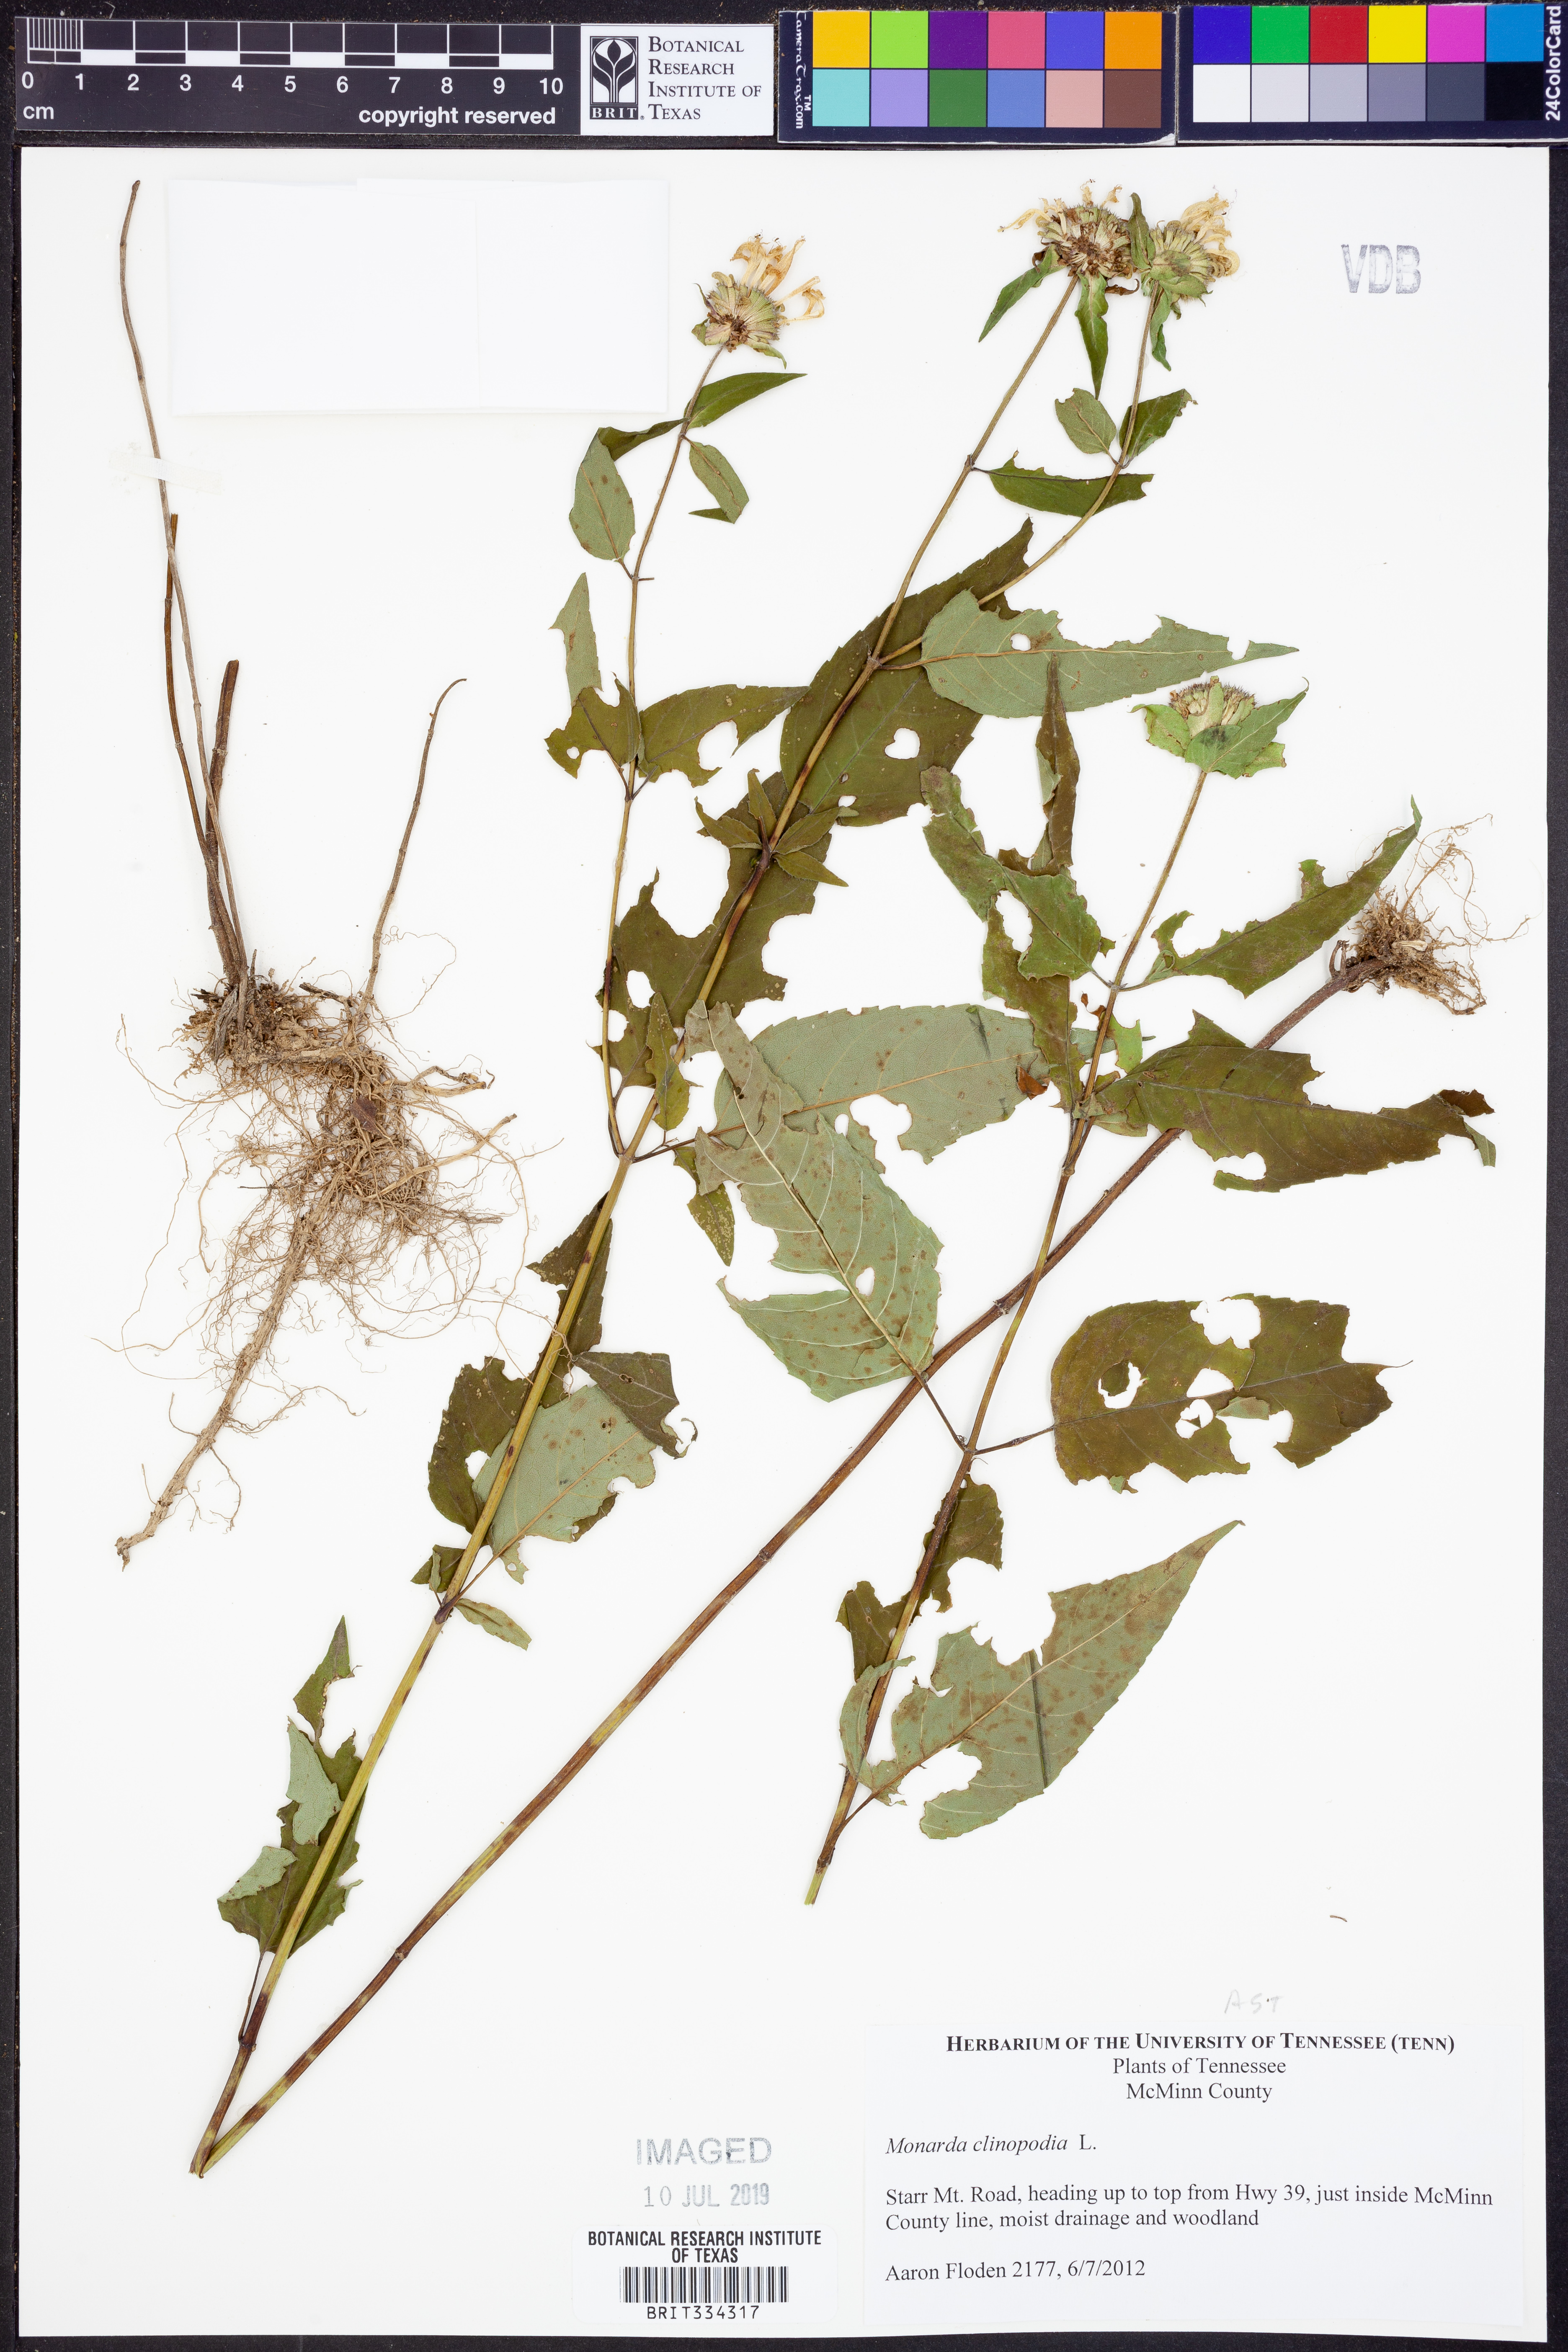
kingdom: Plantae
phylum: Tracheophyta
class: Magnoliopsida
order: Lamiales
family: Lamiaceae
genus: Monarda
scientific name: Monarda clinopodia
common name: Basil beebalm
